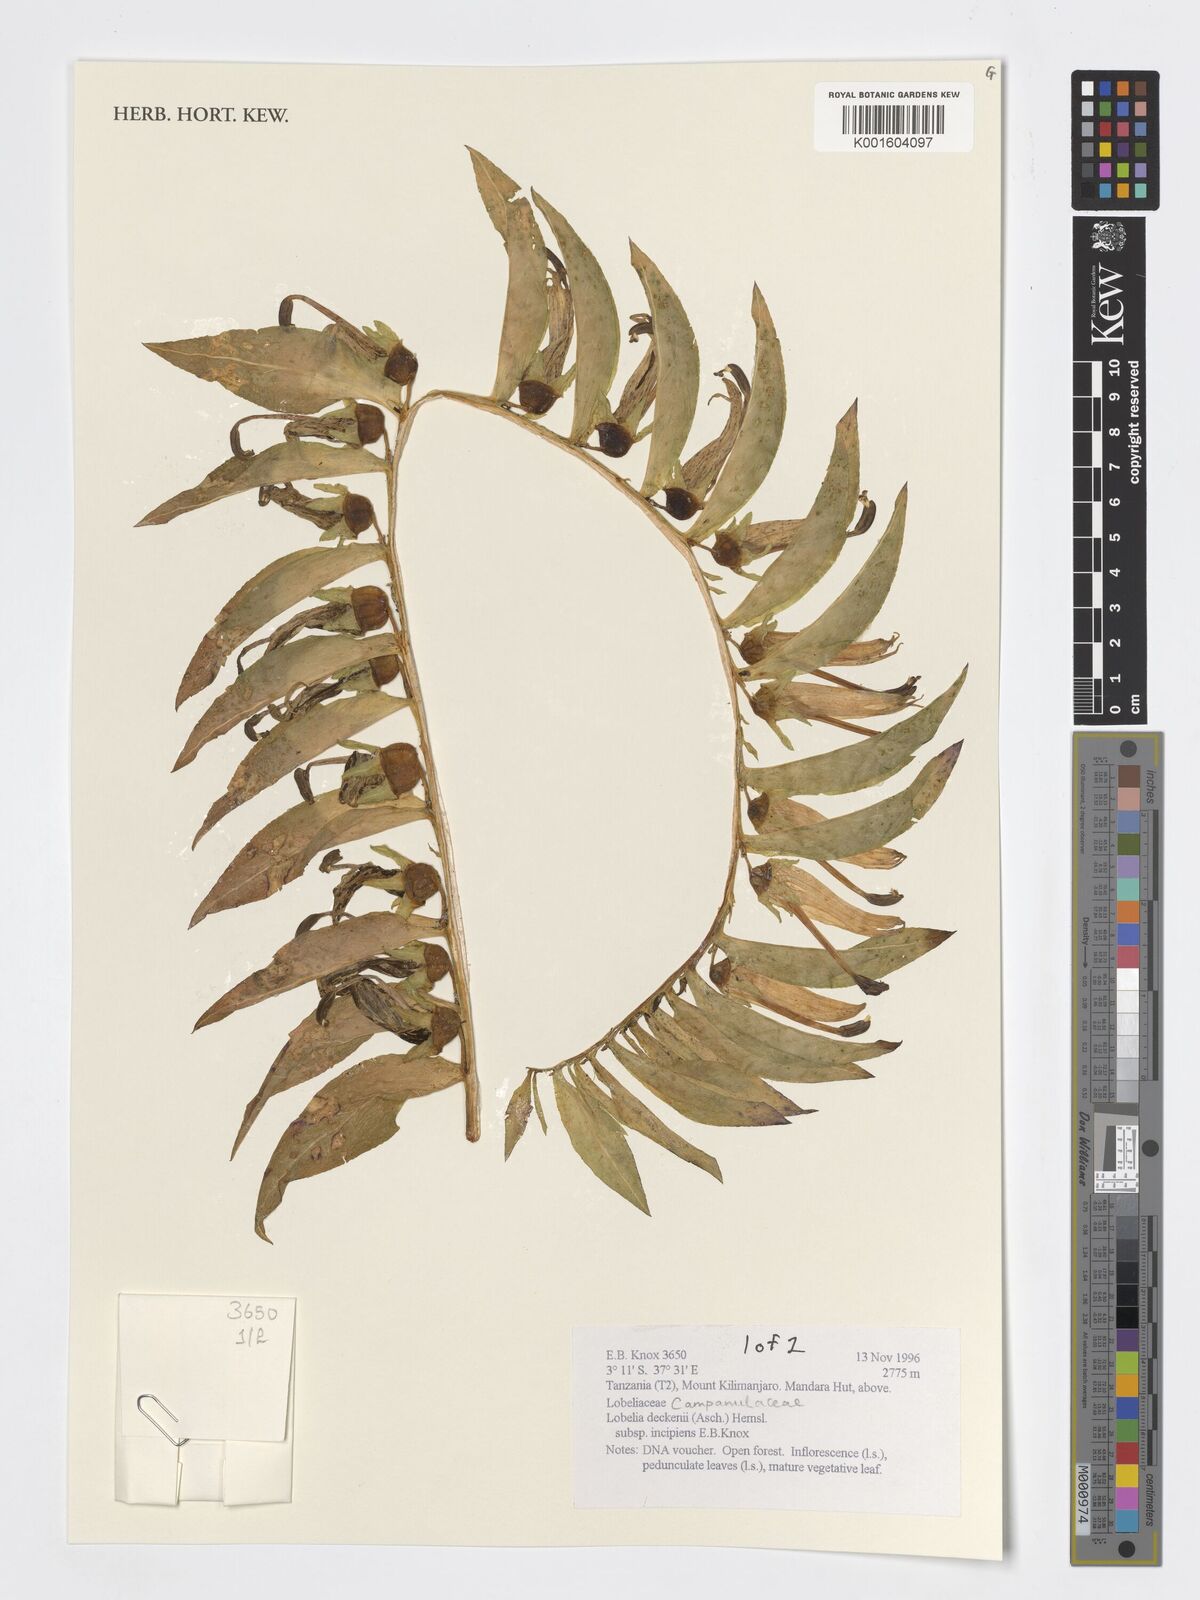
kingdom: Plantae
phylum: Tracheophyta
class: Magnoliopsida
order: Asterales
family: Campanulaceae
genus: Lobelia
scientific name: Lobelia deckenii
